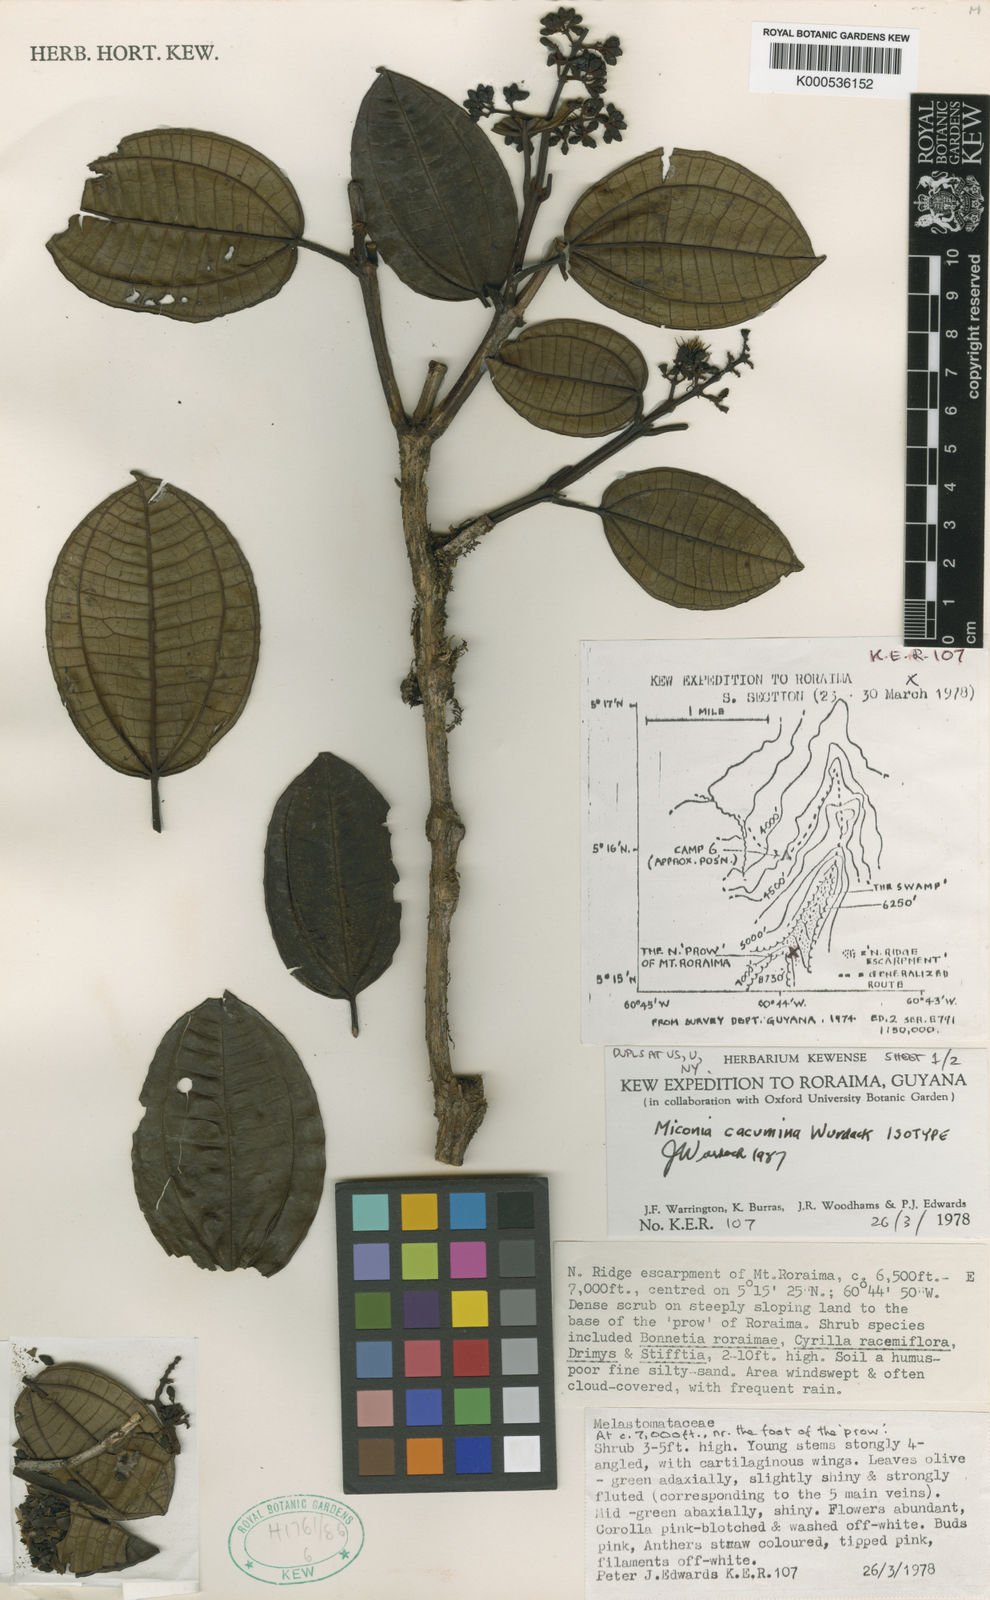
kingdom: Plantae
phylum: Tracheophyta
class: Magnoliopsida
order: Myrtales
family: Melastomataceae
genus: Miconia
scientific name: Miconia cacumina
